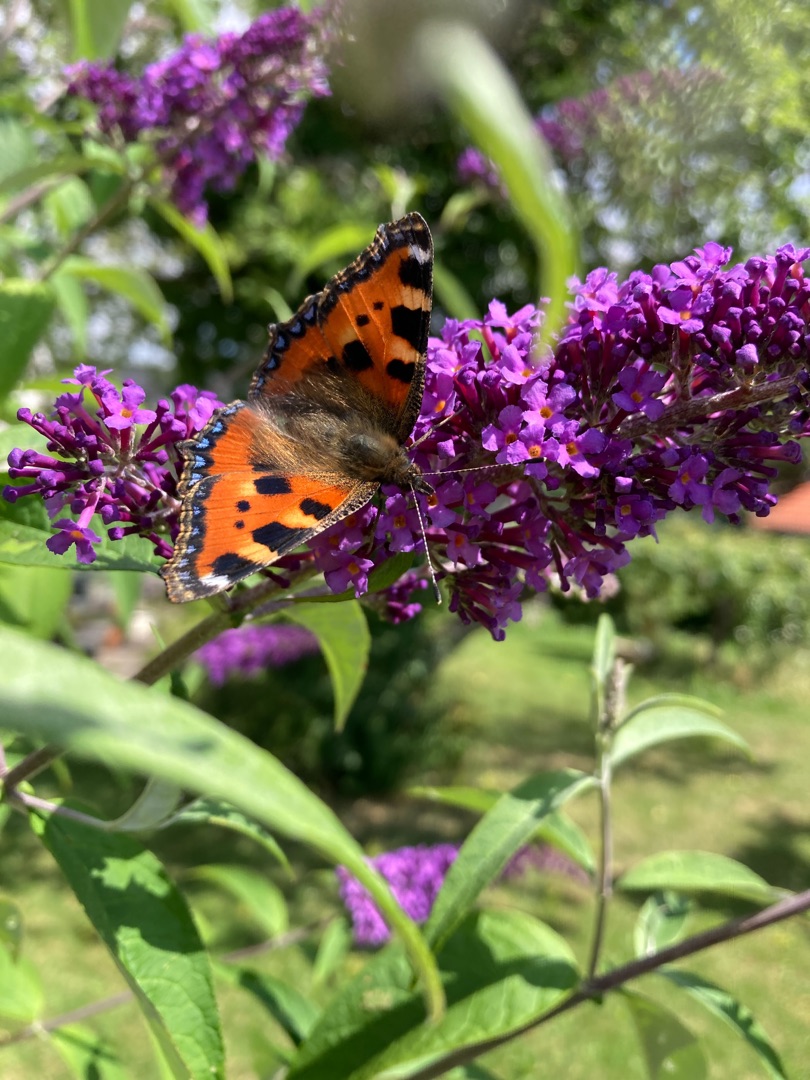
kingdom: Animalia
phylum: Arthropoda
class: Insecta
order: Lepidoptera
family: Nymphalidae
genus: Aglais
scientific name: Aglais urticae
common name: Nældens takvinge
